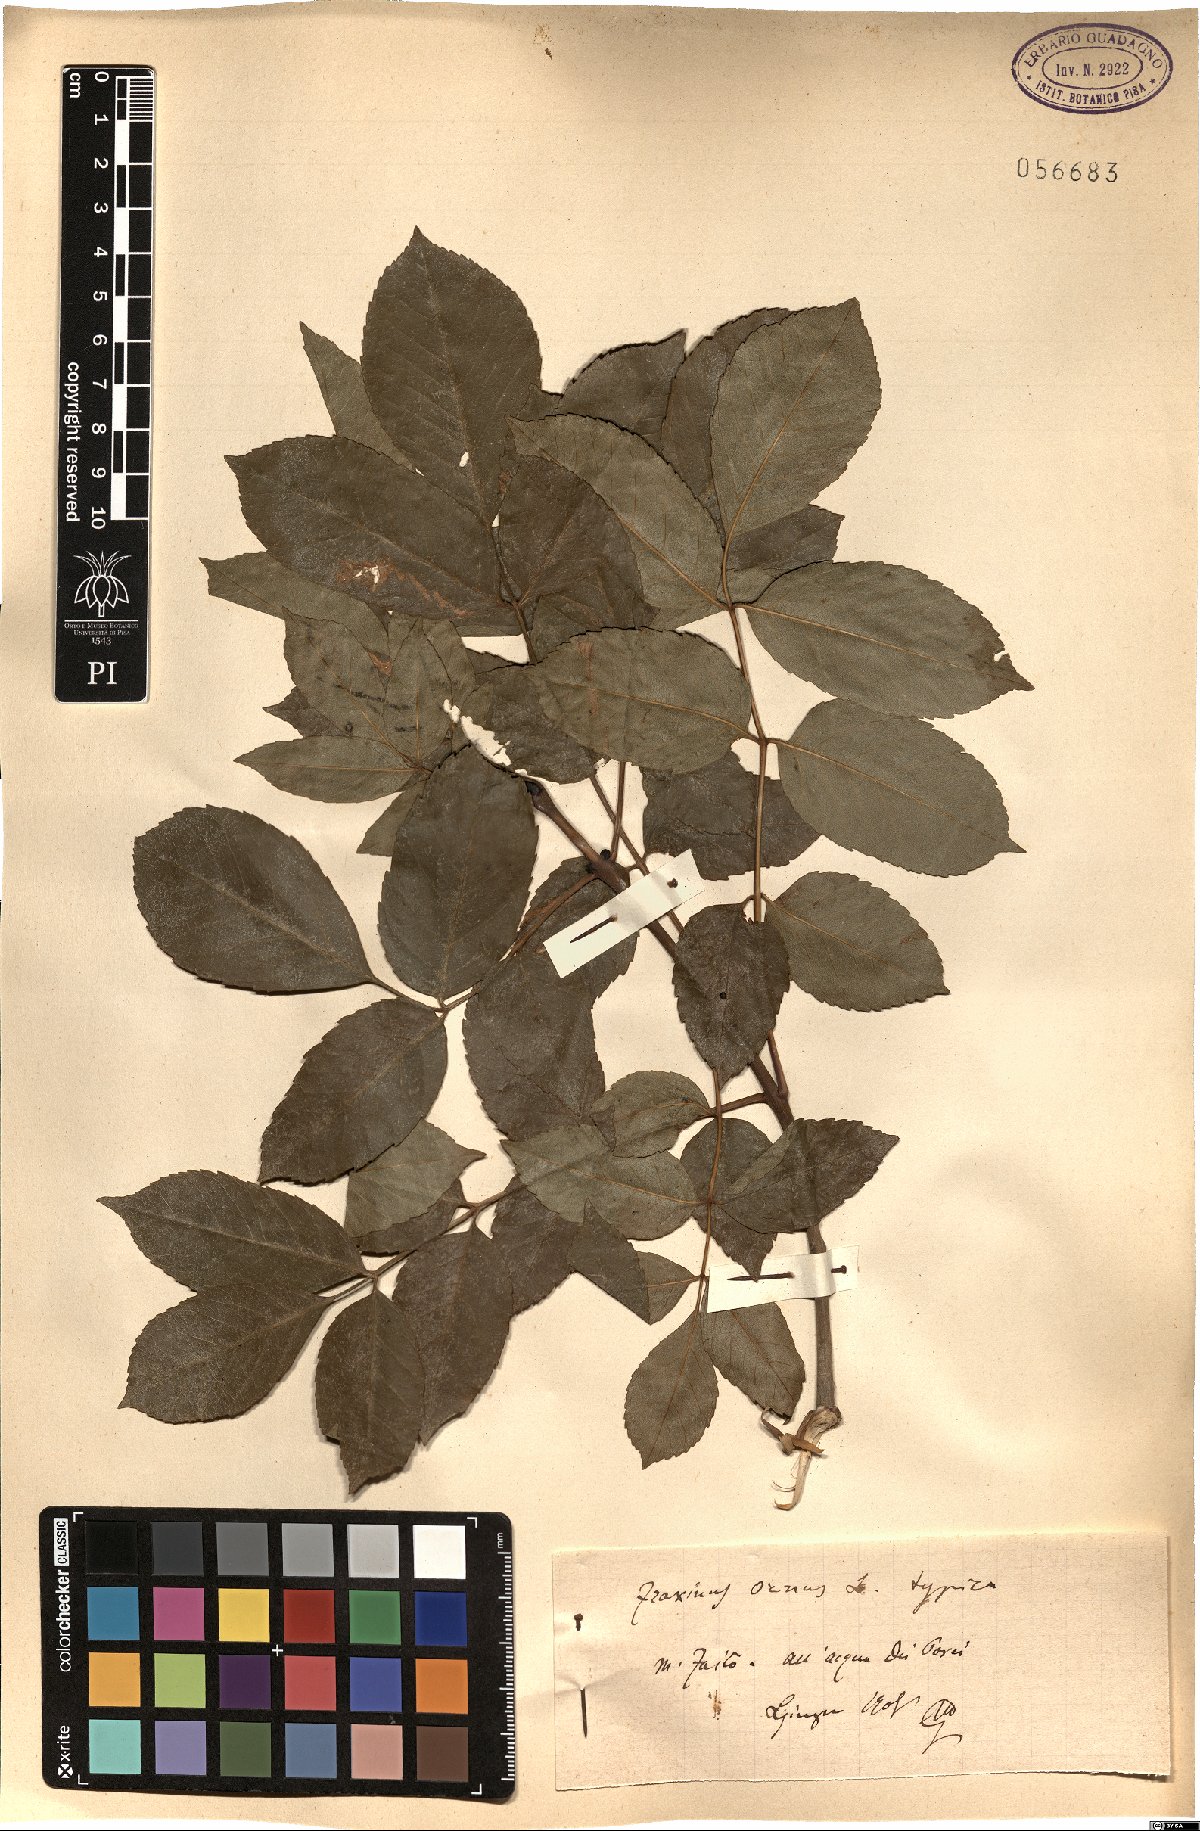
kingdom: Plantae
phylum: Tracheophyta
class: Magnoliopsida
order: Lamiales
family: Oleaceae
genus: Fraxinus
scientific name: Fraxinus ornus
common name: Manna ash
